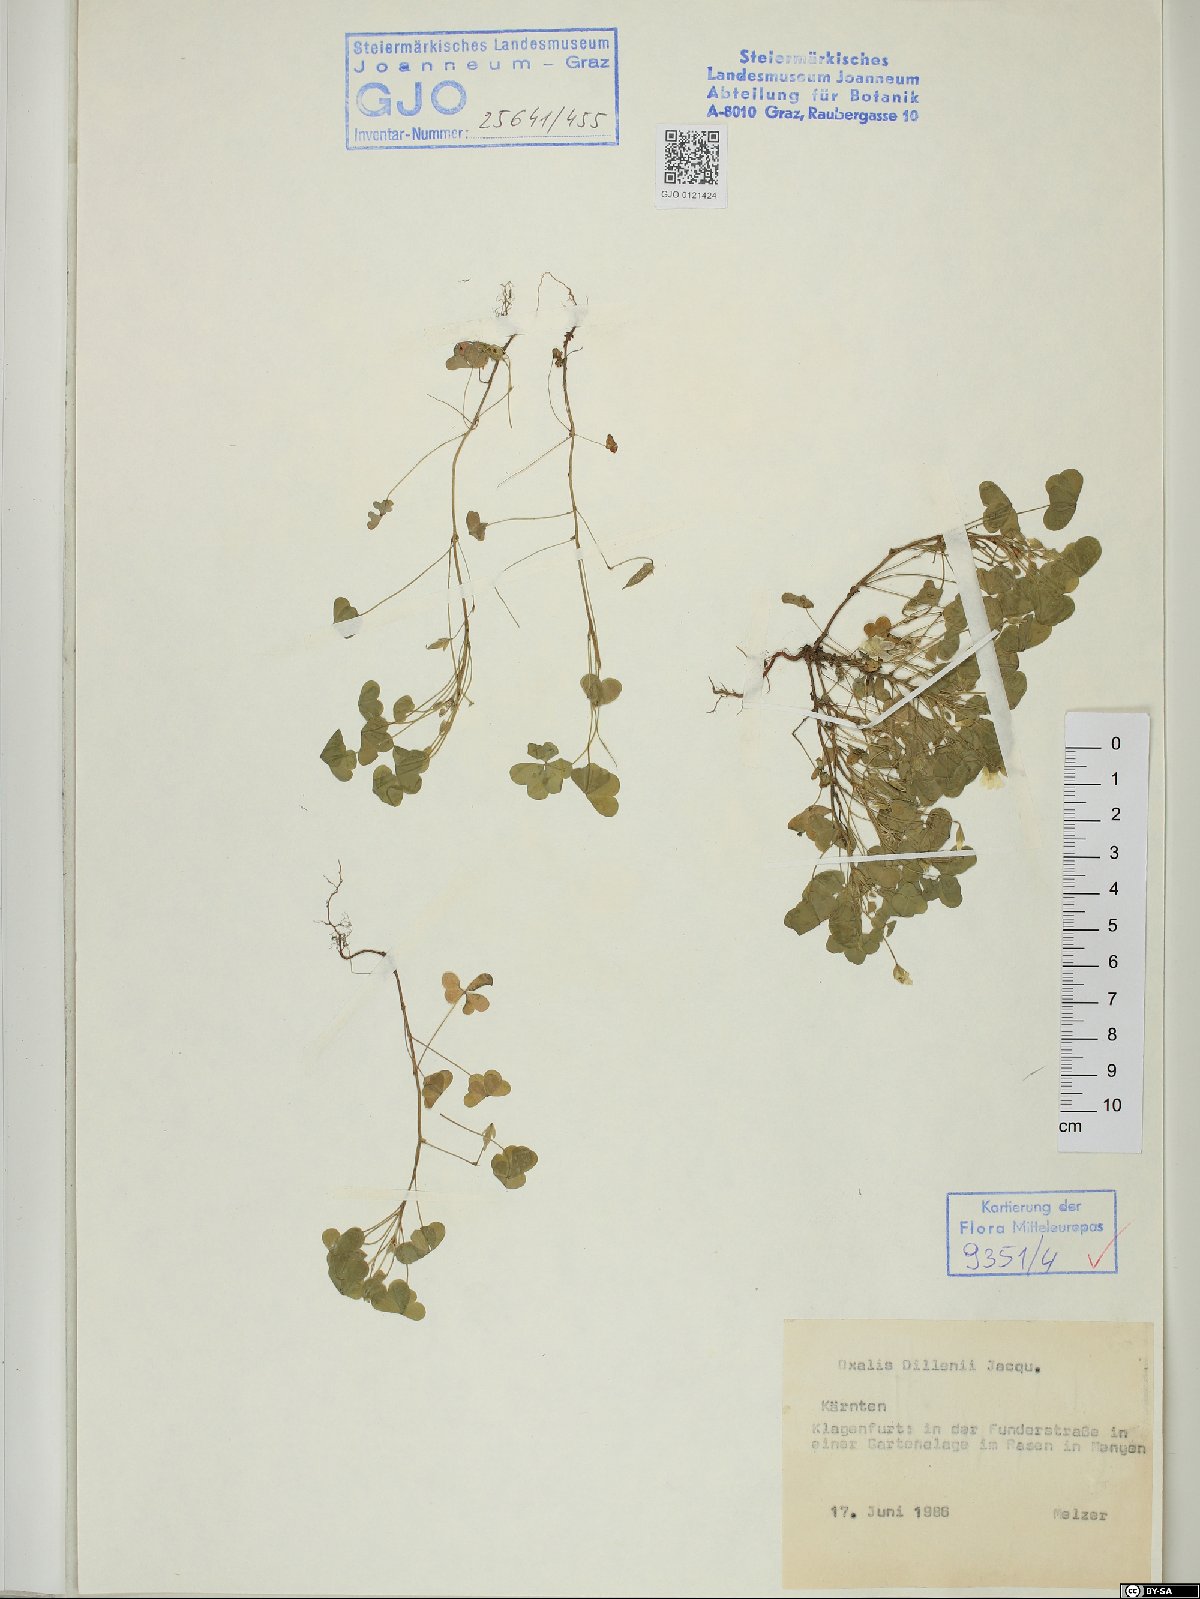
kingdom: Plantae
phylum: Tracheophyta
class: Magnoliopsida
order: Oxalidales
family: Oxalidaceae
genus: Oxalis
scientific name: Oxalis dillenii
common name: Sussex yellow-sorrel
